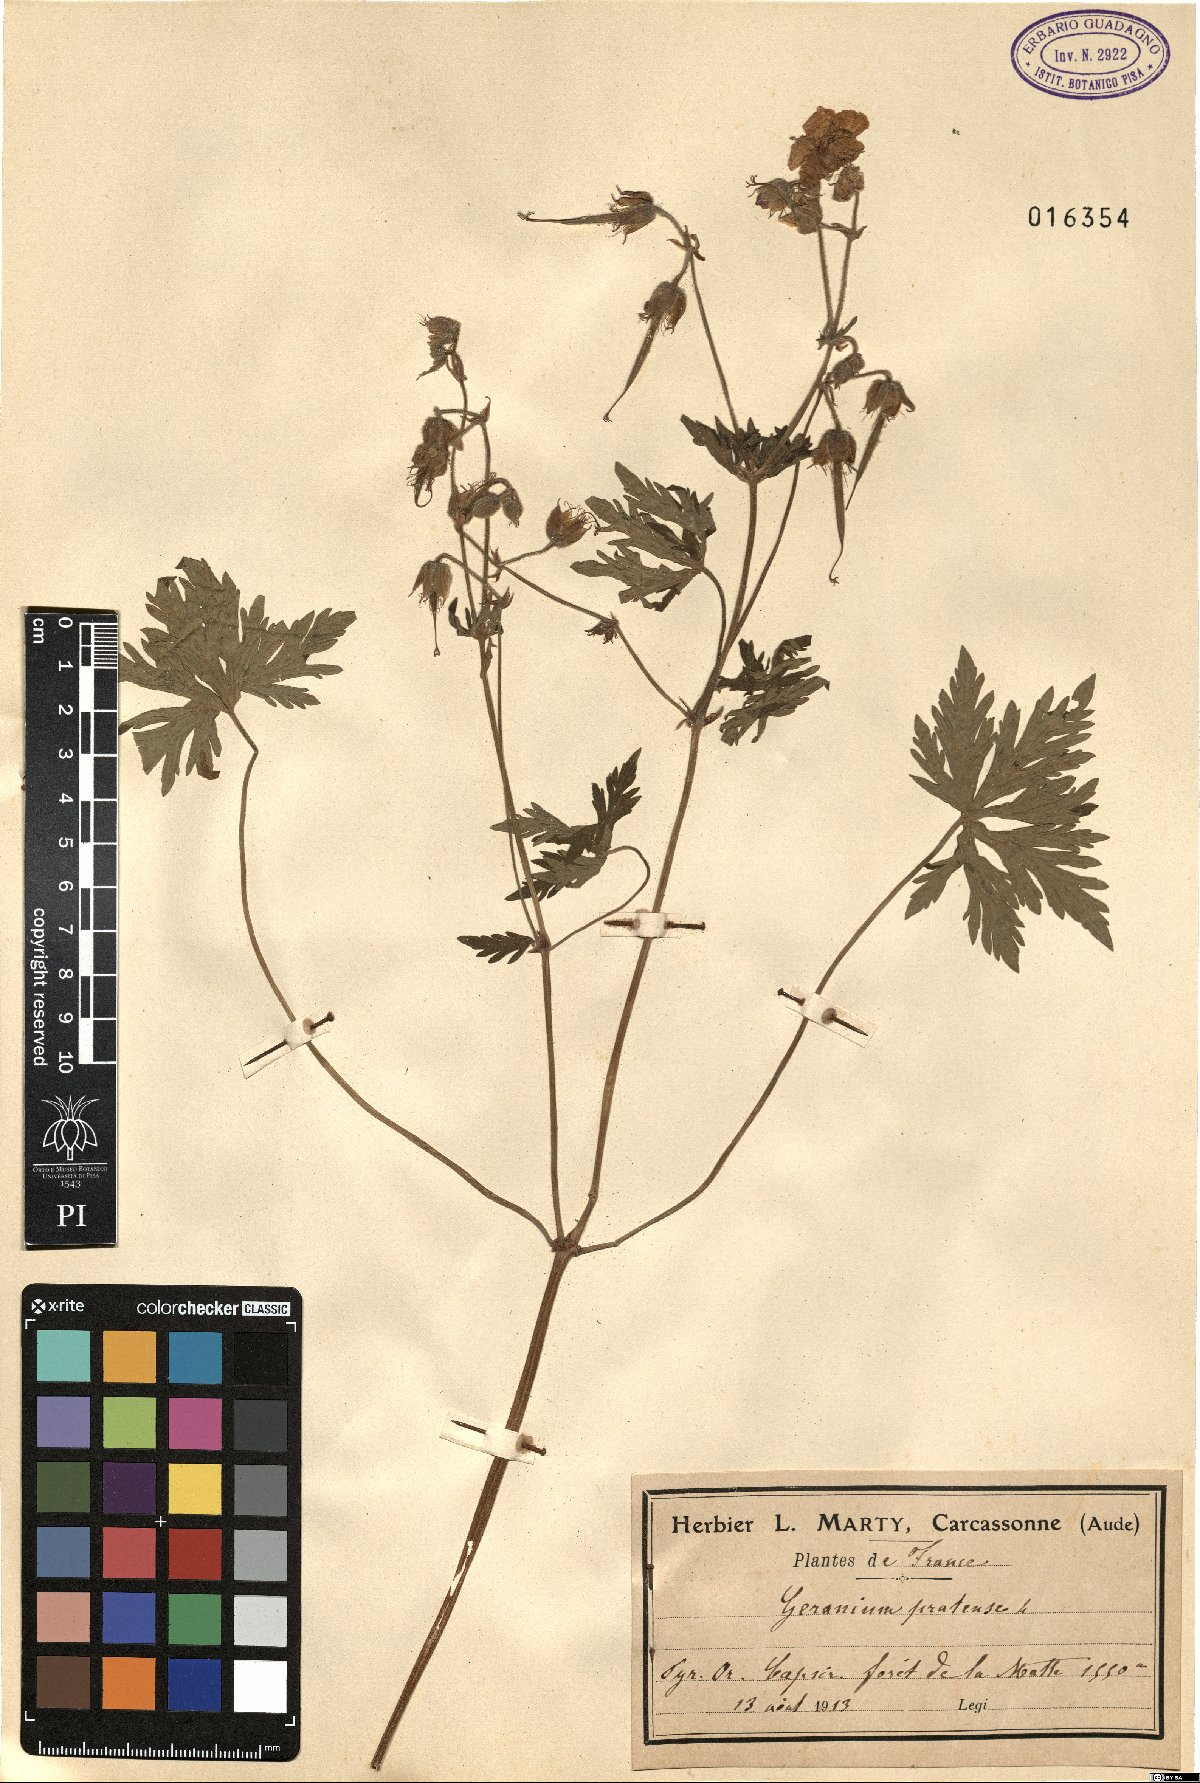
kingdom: Plantae
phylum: Tracheophyta
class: Magnoliopsida
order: Geraniales
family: Geraniaceae
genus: Geranium
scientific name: Geranium pratense
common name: Meadow crane's-bill
